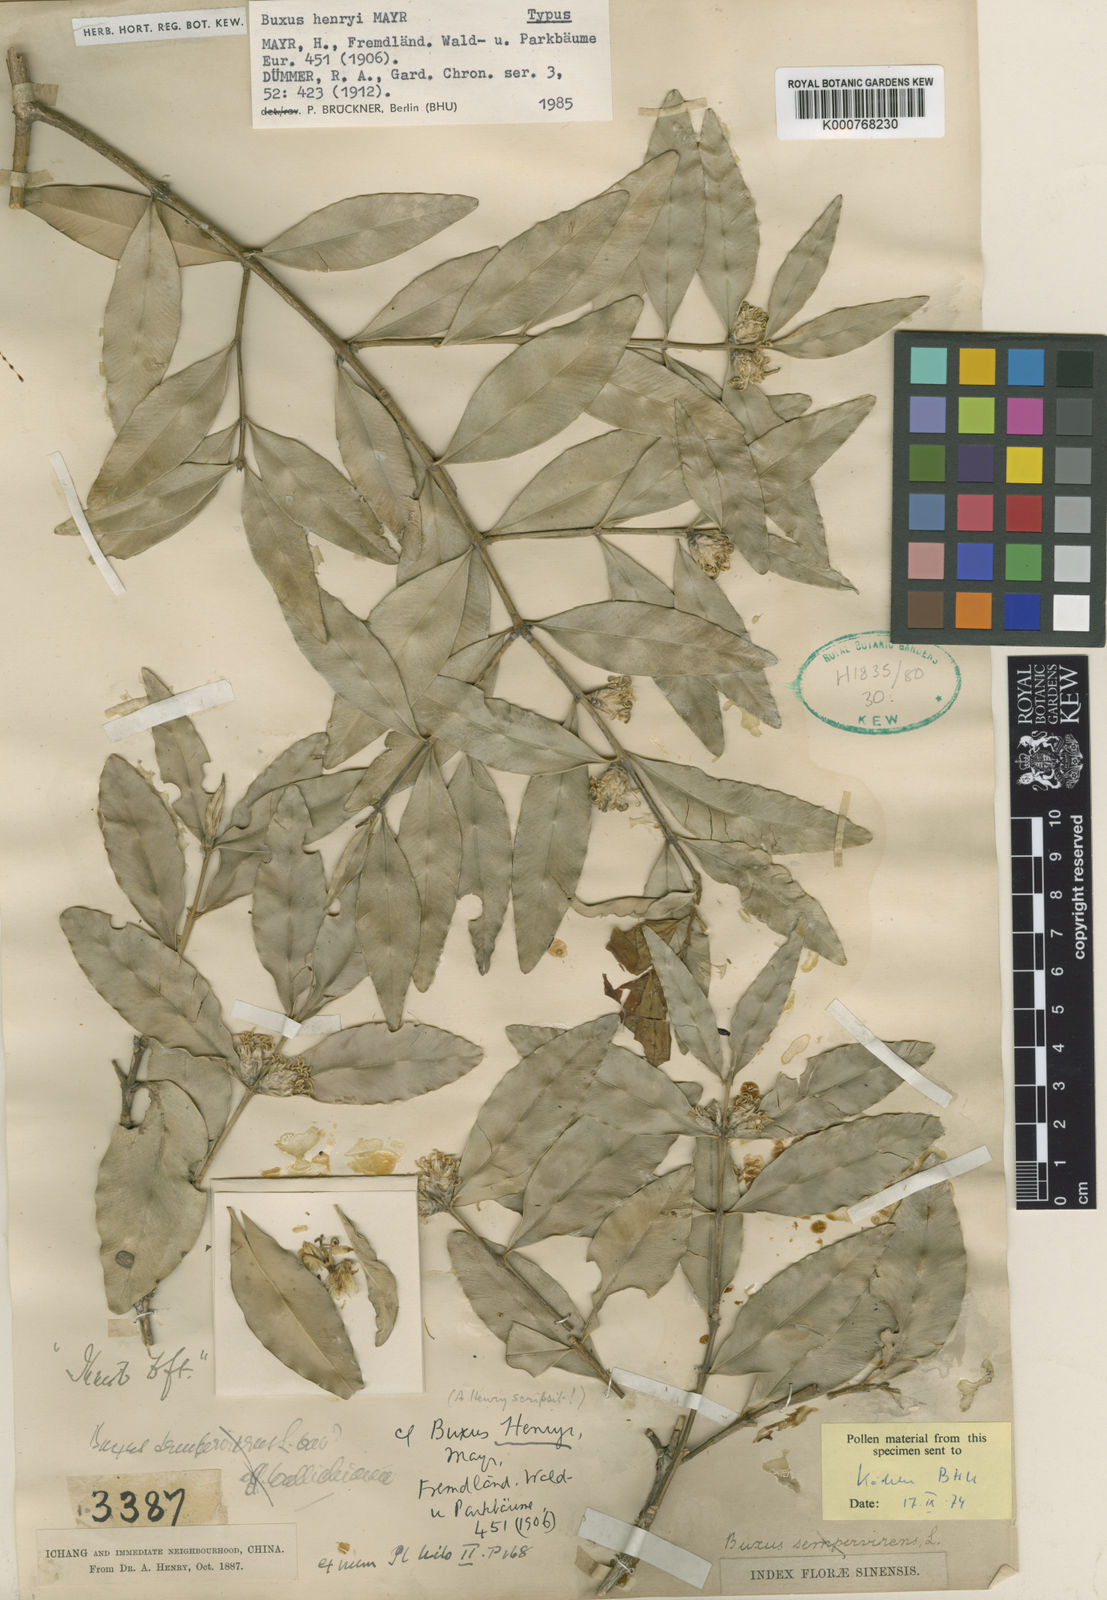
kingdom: Plantae
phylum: Tracheophyta
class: Magnoliopsida
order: Buxales
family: Buxaceae
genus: Buxus
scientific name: Buxus henryi
